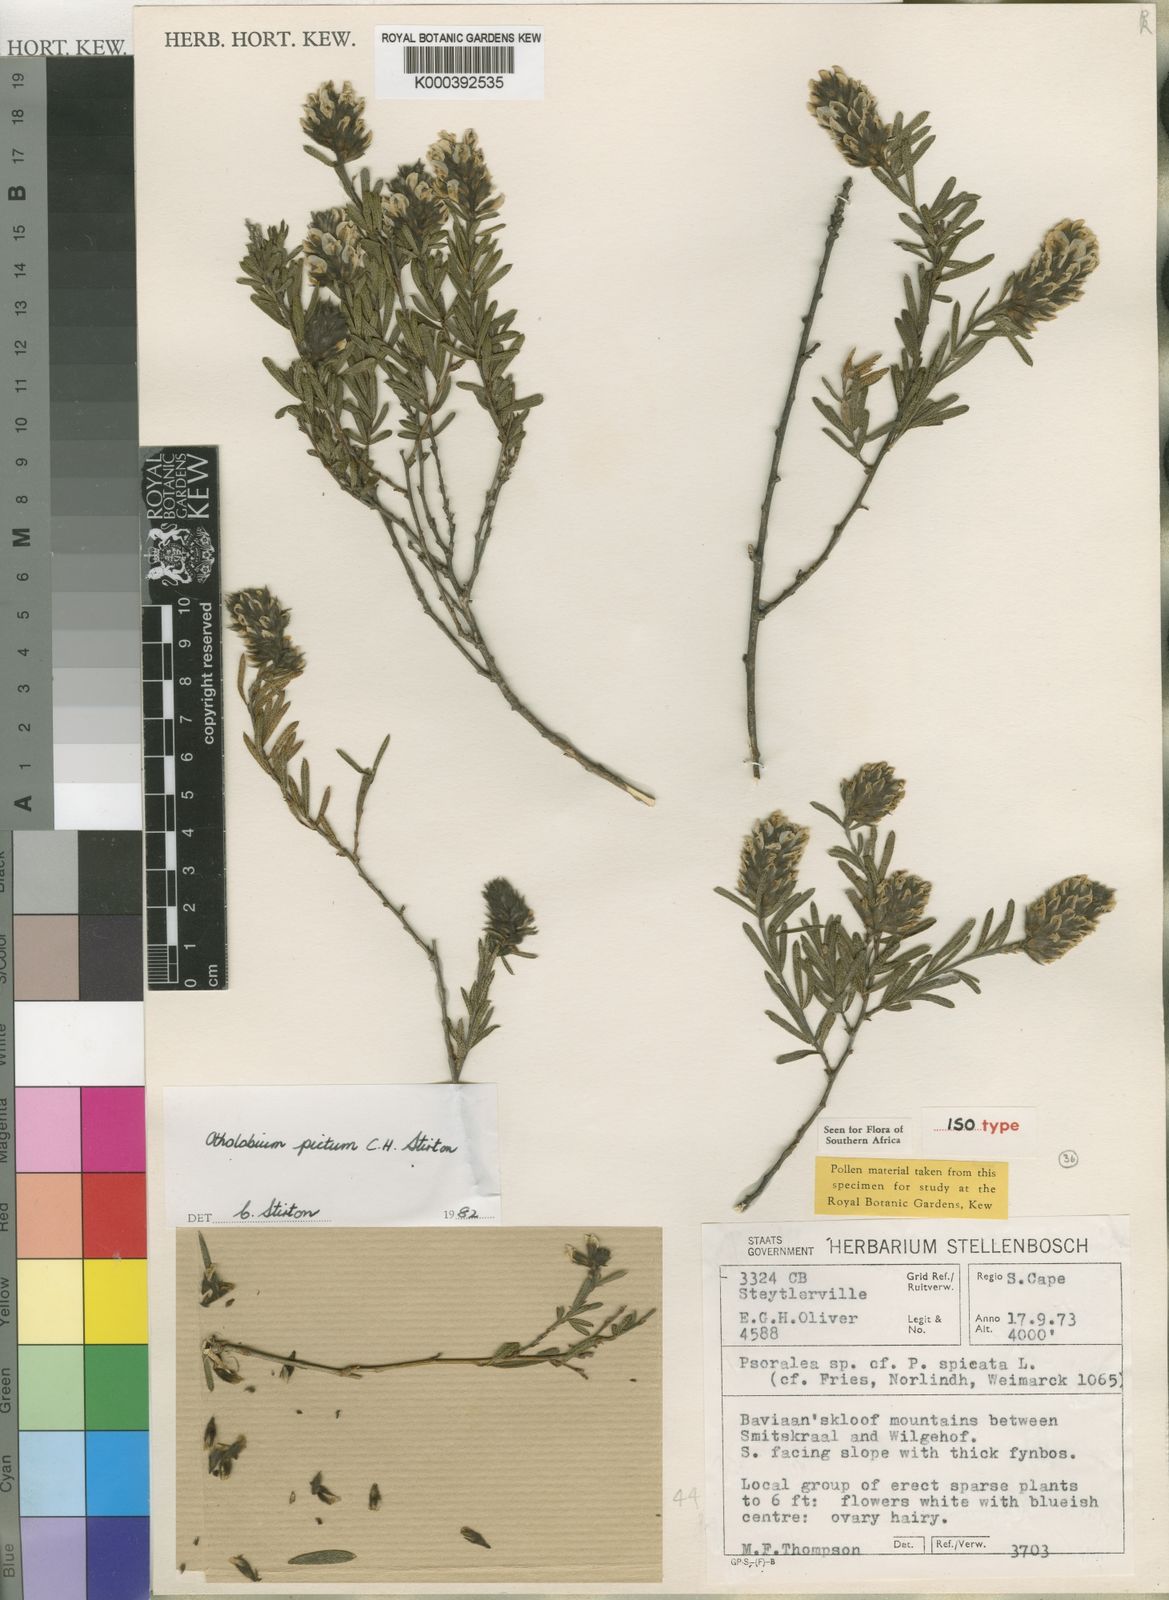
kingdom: Plantae
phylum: Tracheophyta
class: Magnoliopsida
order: Fabales
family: Fabaceae
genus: Psoralea
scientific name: Psoralea picta
